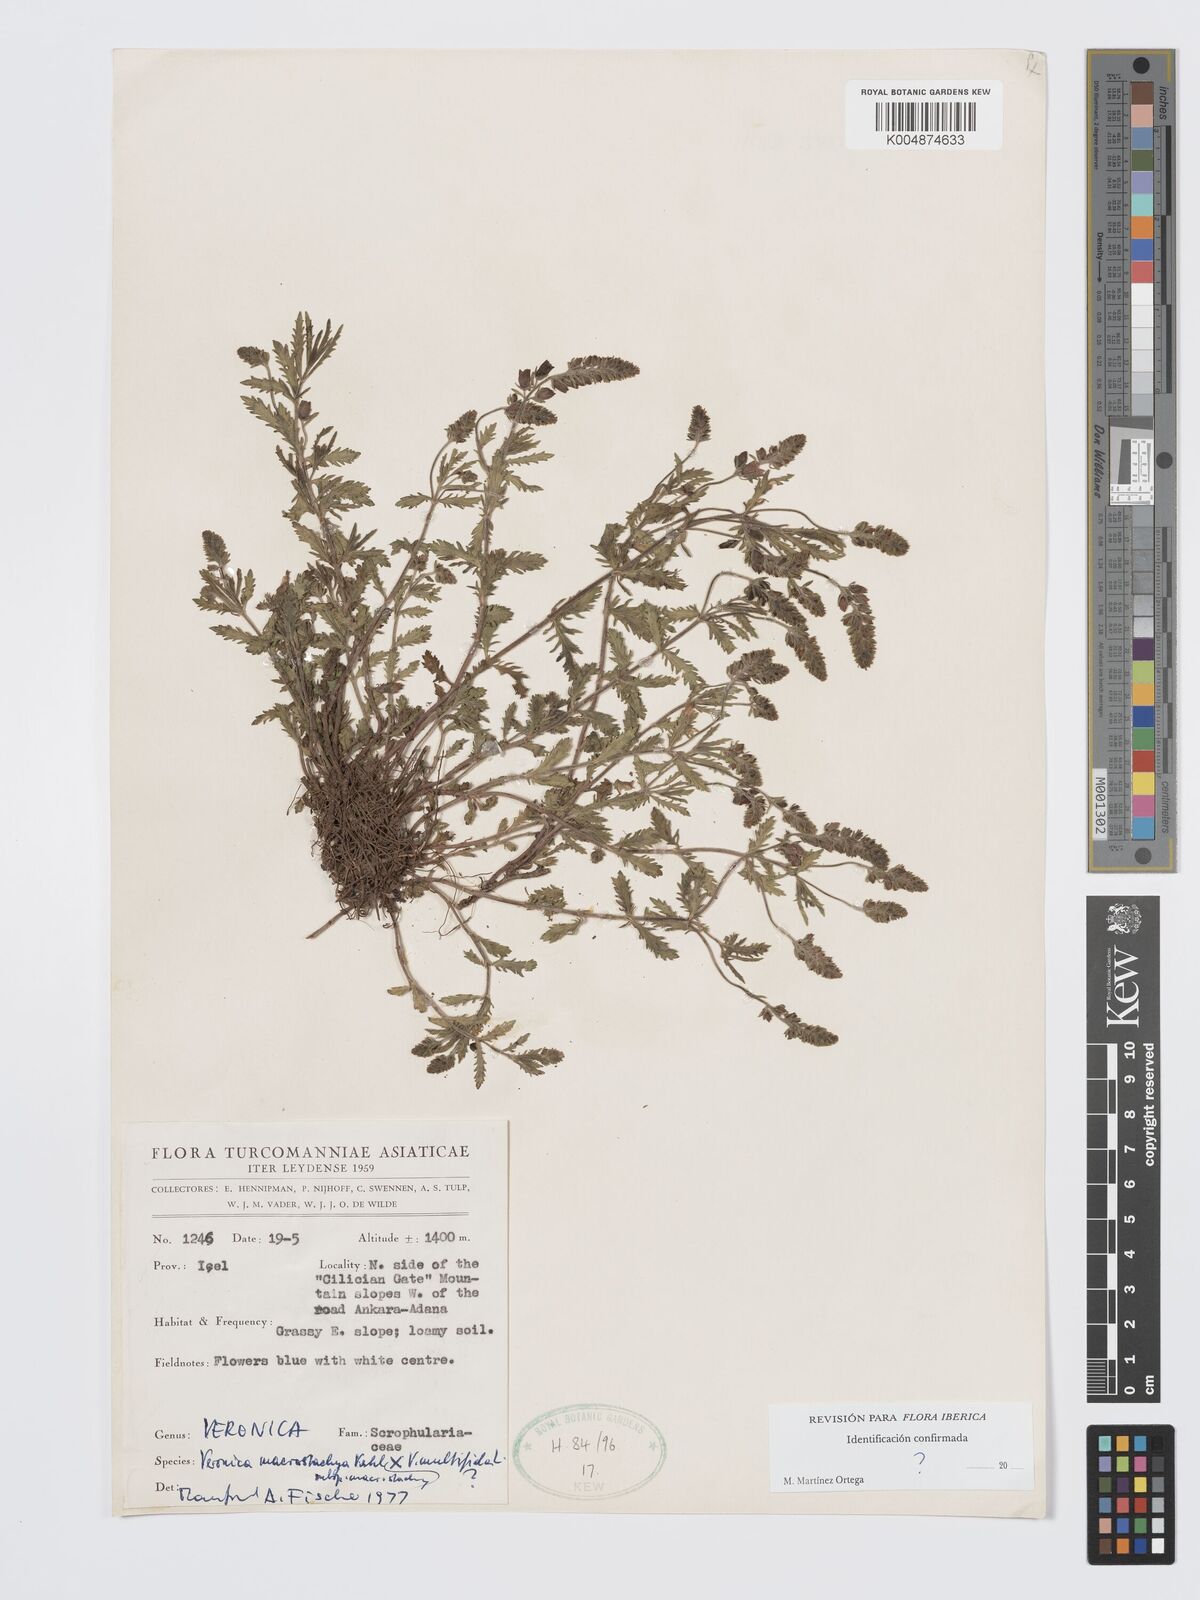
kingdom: Plantae
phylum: Tracheophyta
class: Magnoliopsida
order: Lamiales
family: Plantaginaceae
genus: Veronica
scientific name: Veronica
